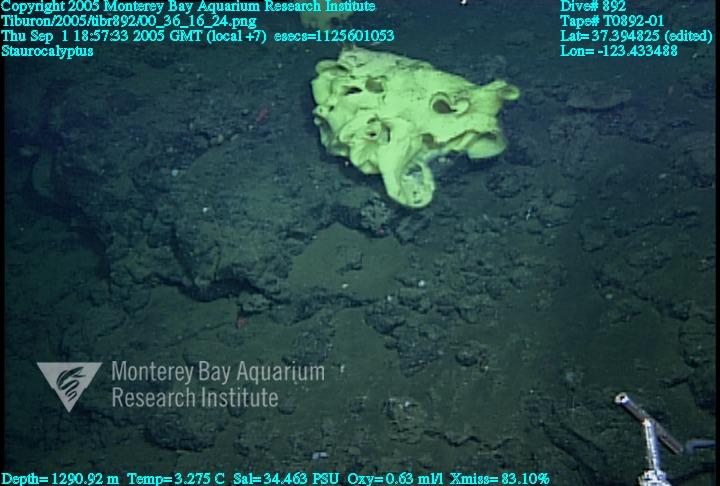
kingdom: Animalia
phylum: Porifera
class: Hexactinellida
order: Lyssacinosida
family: Rossellidae
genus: Staurocalyptus
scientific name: Staurocalyptus
